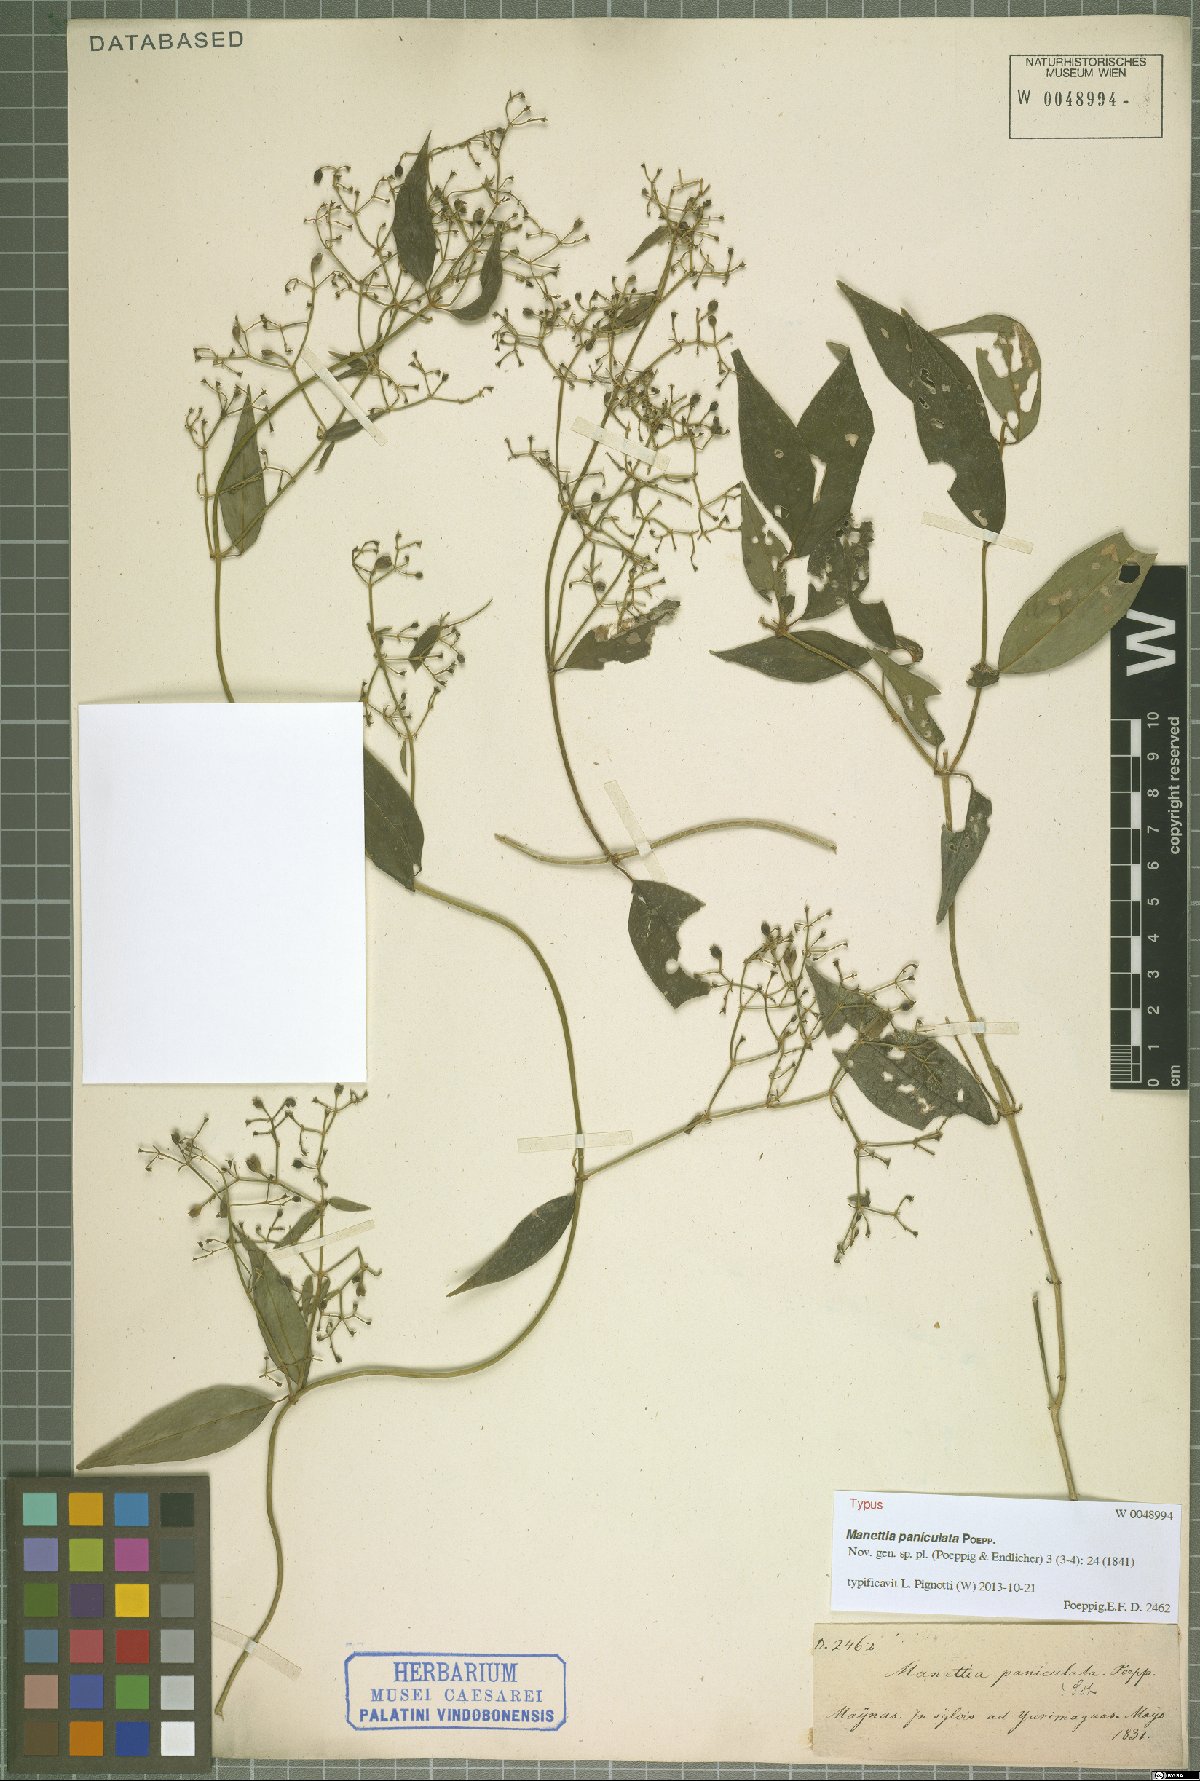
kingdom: Plantae
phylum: Tracheophyta
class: Magnoliopsida
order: Gentianales
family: Rubiaceae
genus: Manettia
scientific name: Manettia paniculata
